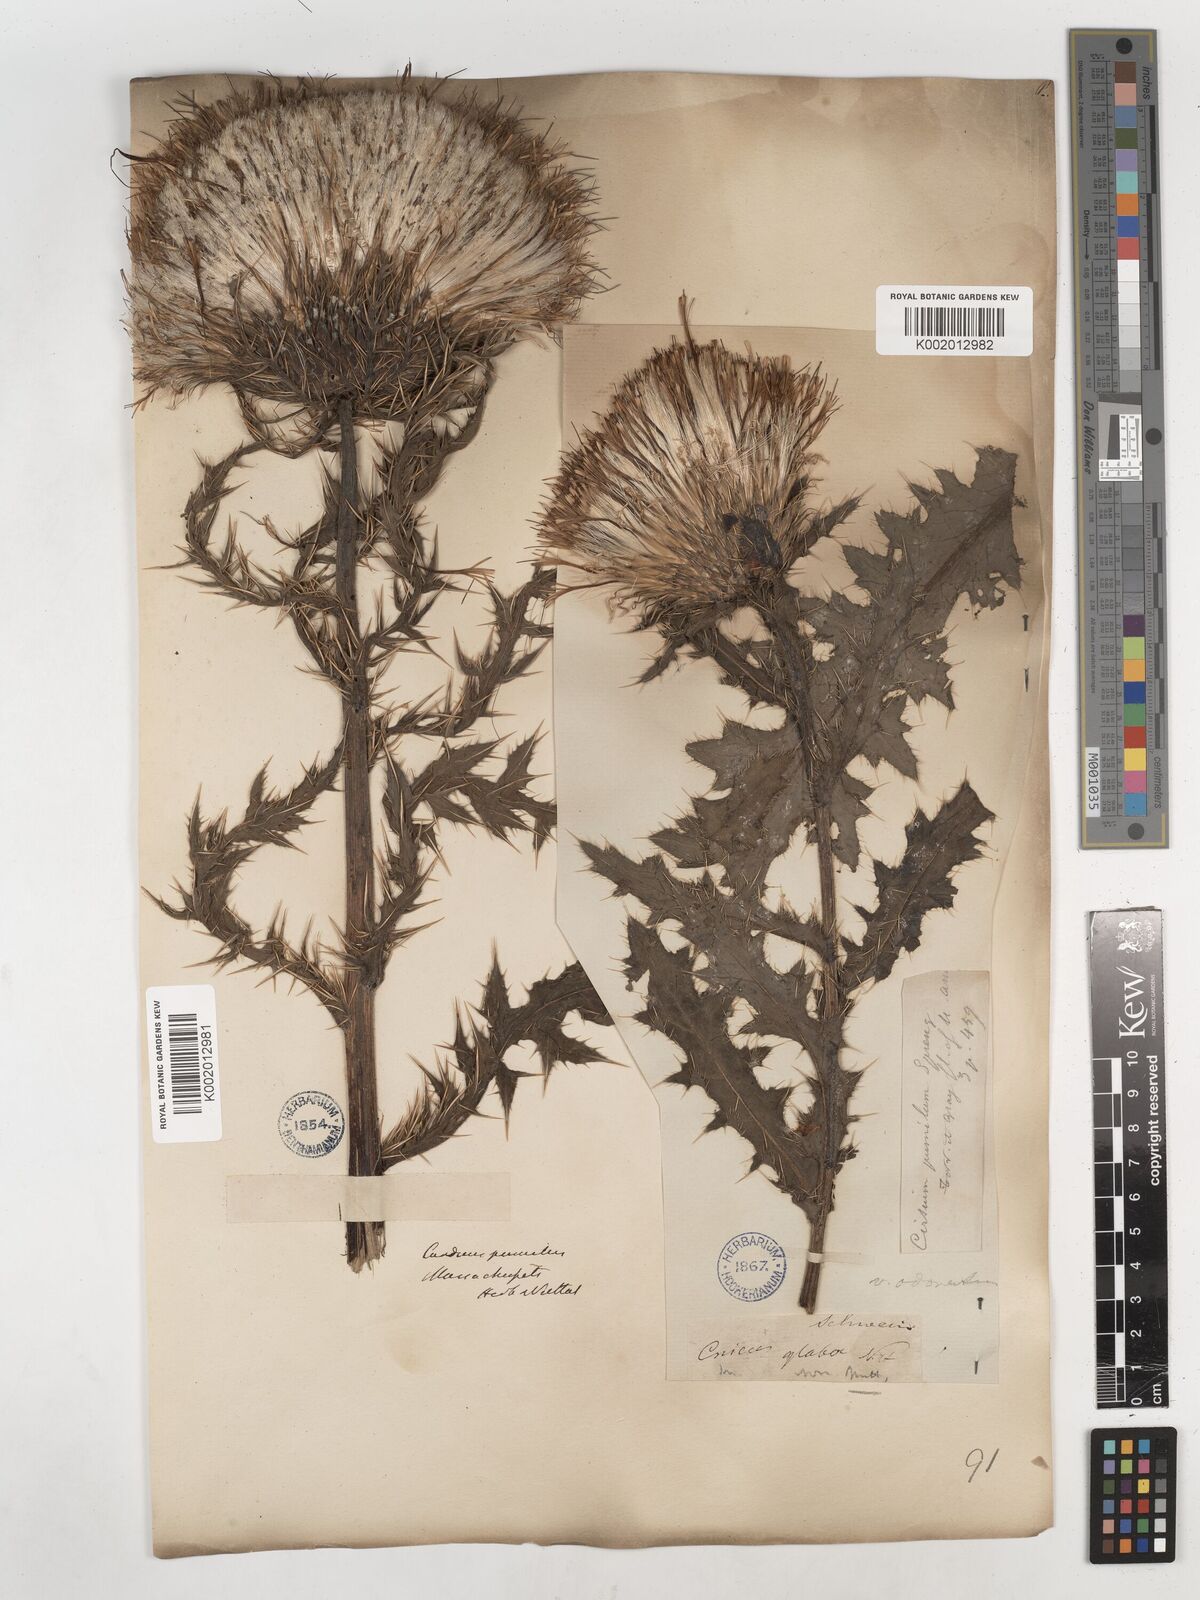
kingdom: Plantae
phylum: Tracheophyta
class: Magnoliopsida
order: Asterales
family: Asteraceae
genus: Cirsium
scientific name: Cirsium pumilum
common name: Pasture thistle
